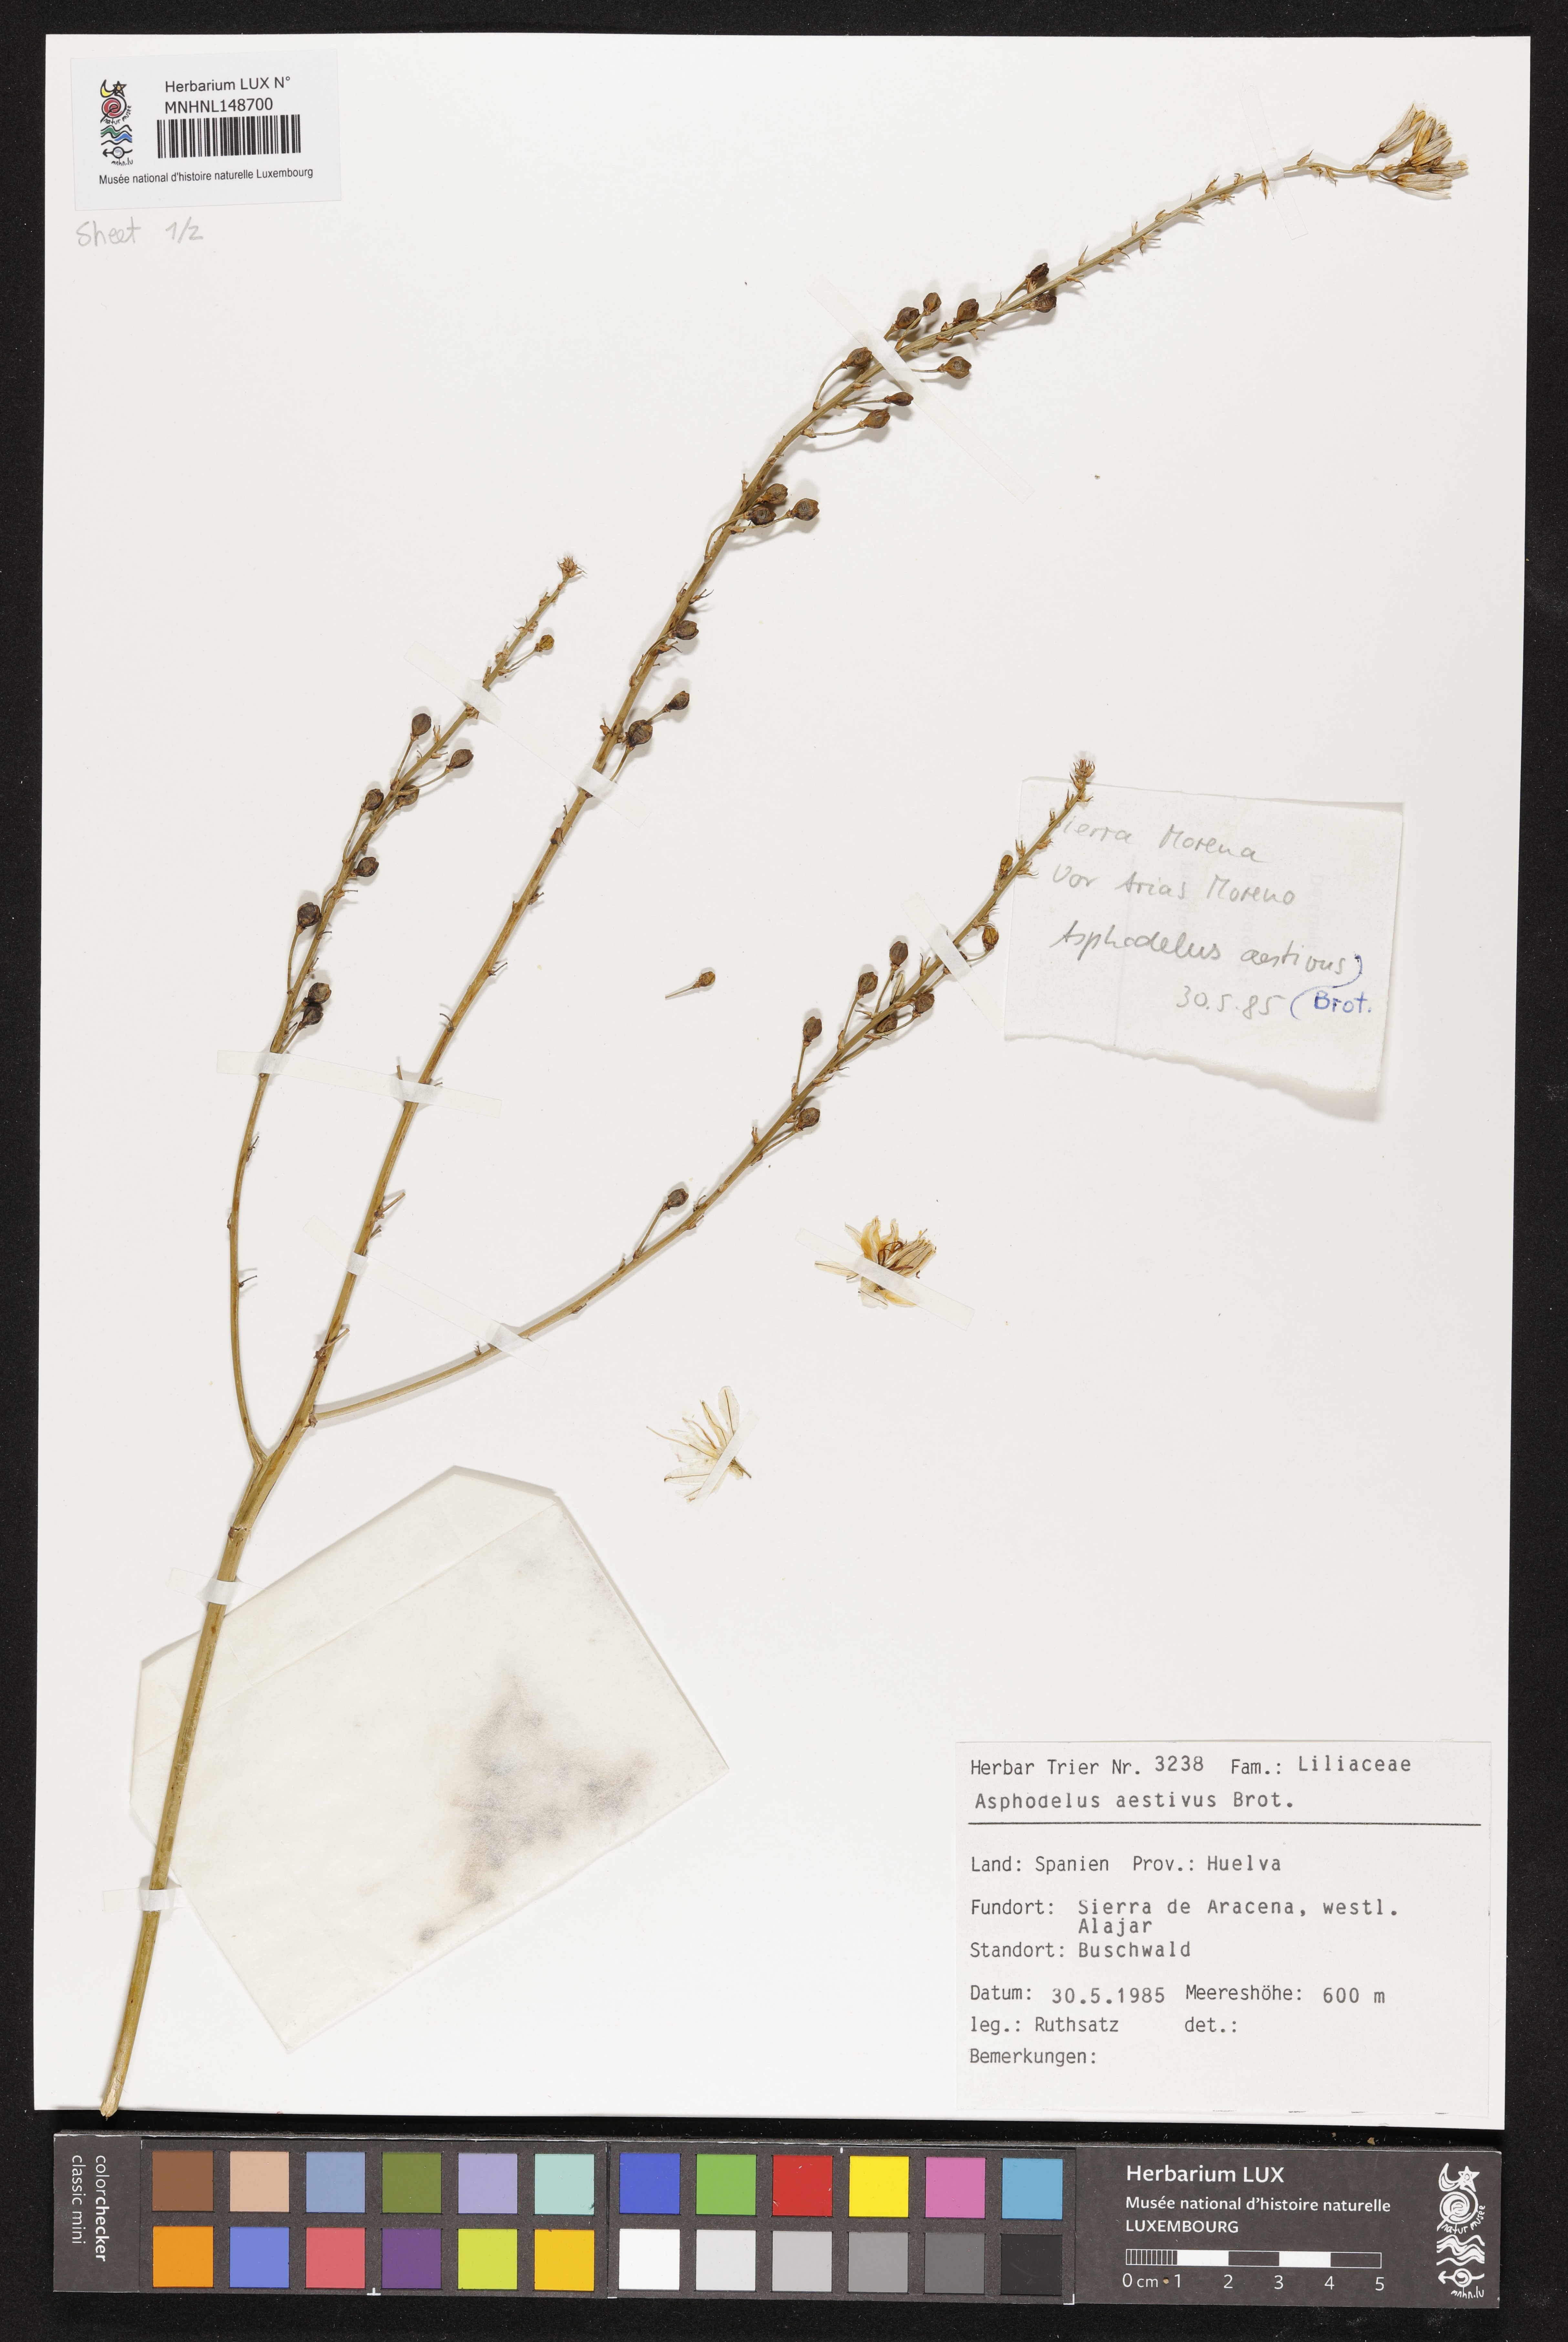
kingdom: Plantae
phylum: Tracheophyta
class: Liliopsida
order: Asparagales
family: Asphodelaceae
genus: Asphodelus
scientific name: Asphodelus aestivus
